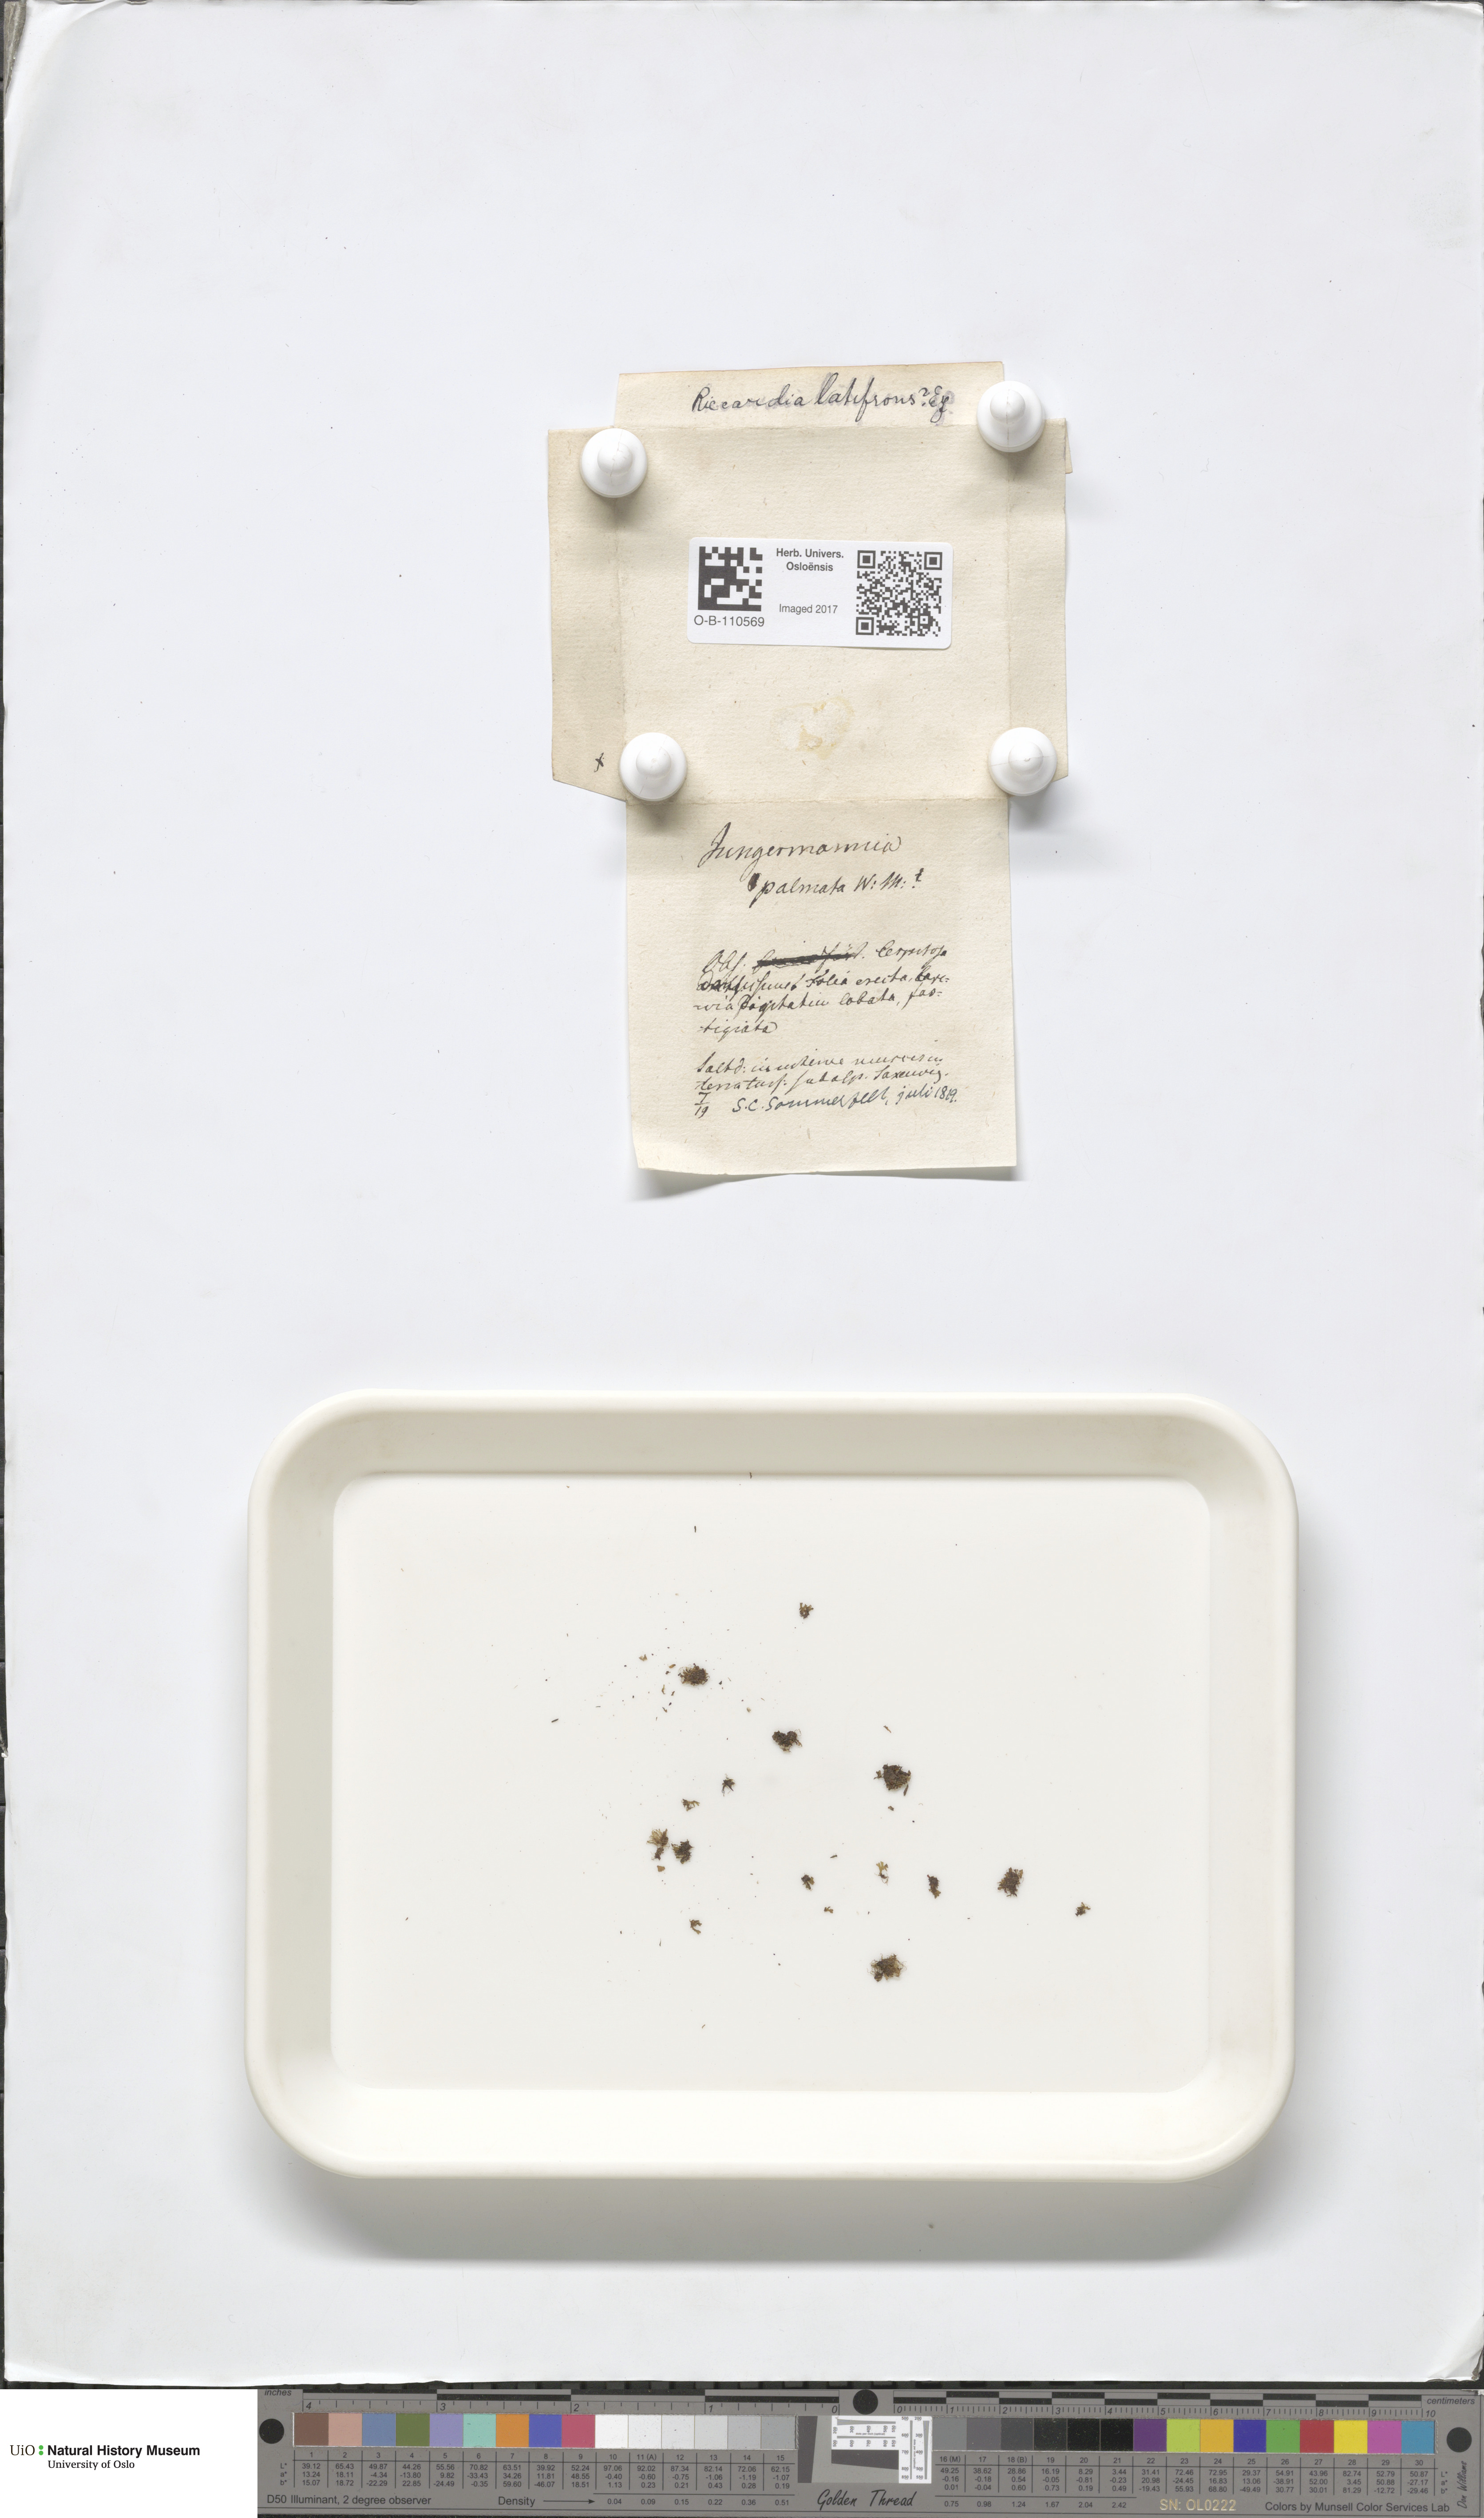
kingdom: Plantae
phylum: Marchantiophyta
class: Jungermanniopsida
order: Metzgeriales
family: Aneuraceae
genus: Riccardia
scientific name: Riccardia latifrons
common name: Bog germanderwort
